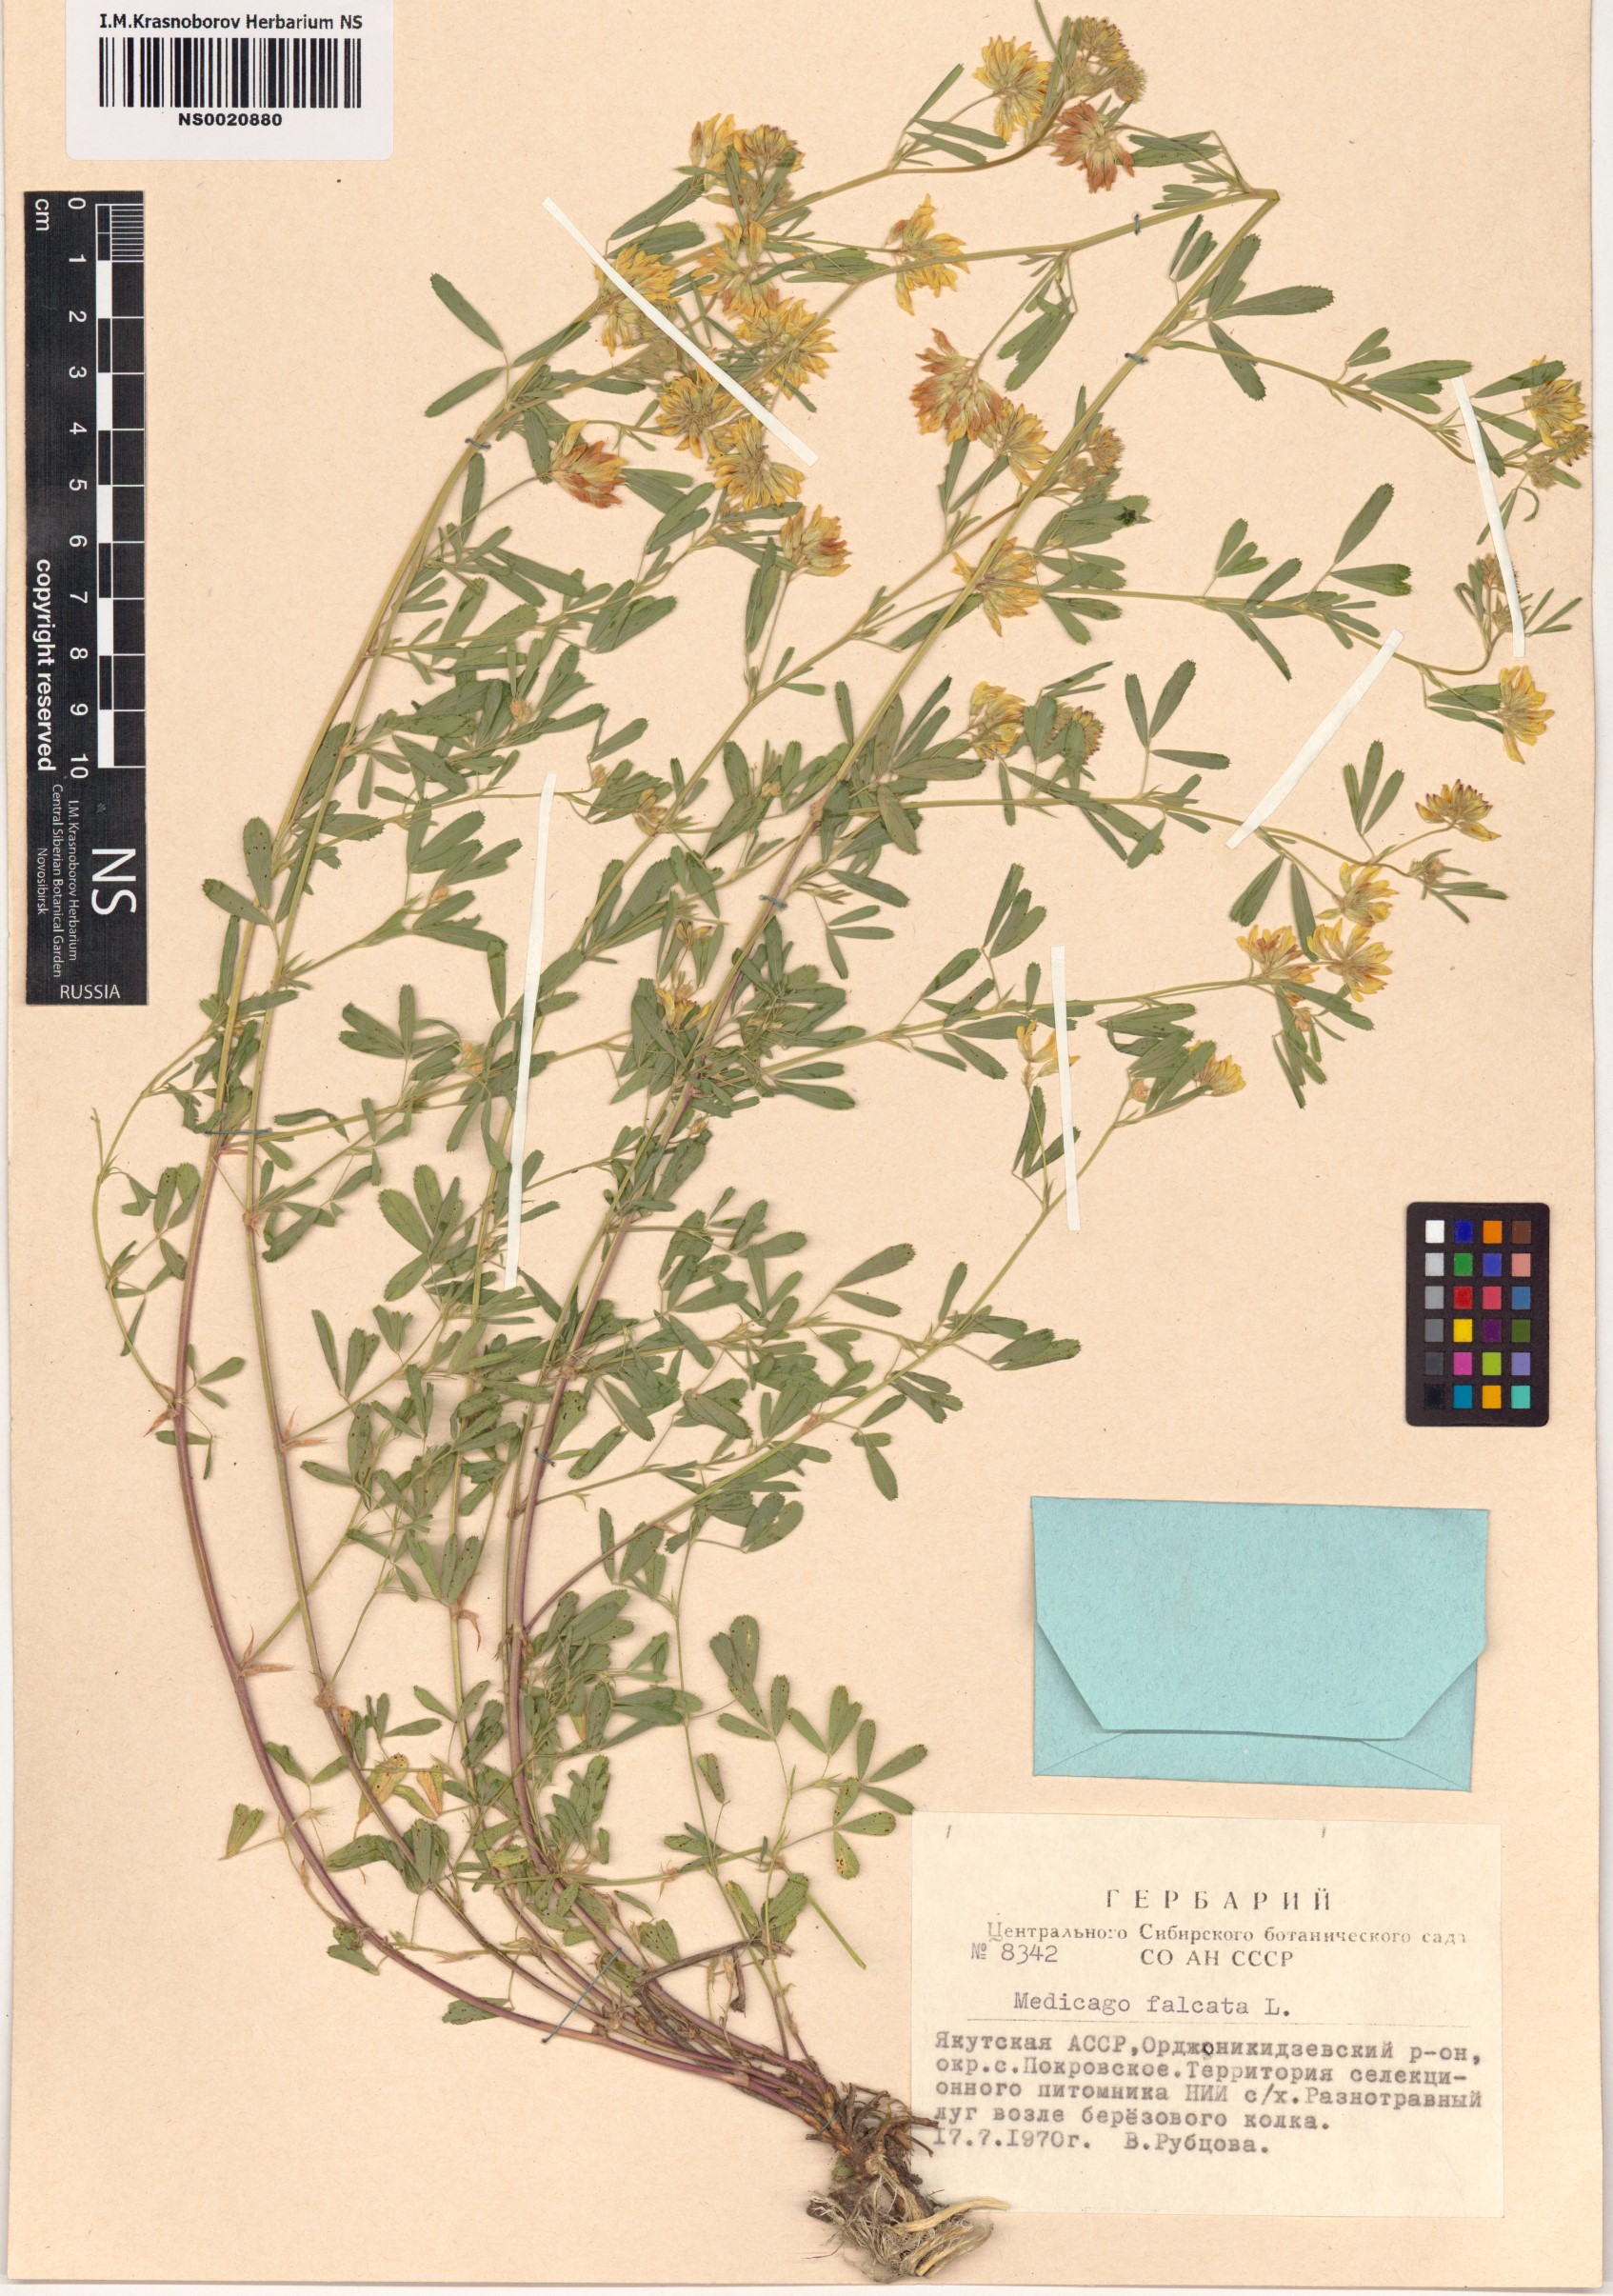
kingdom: Plantae
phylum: Tracheophyta
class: Magnoliopsida
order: Fabales
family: Fabaceae
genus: Medicago
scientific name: Medicago falcata
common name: Sickle medick
